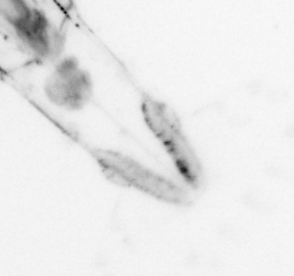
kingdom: Animalia
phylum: Chaetognatha
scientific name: Chaetognatha
